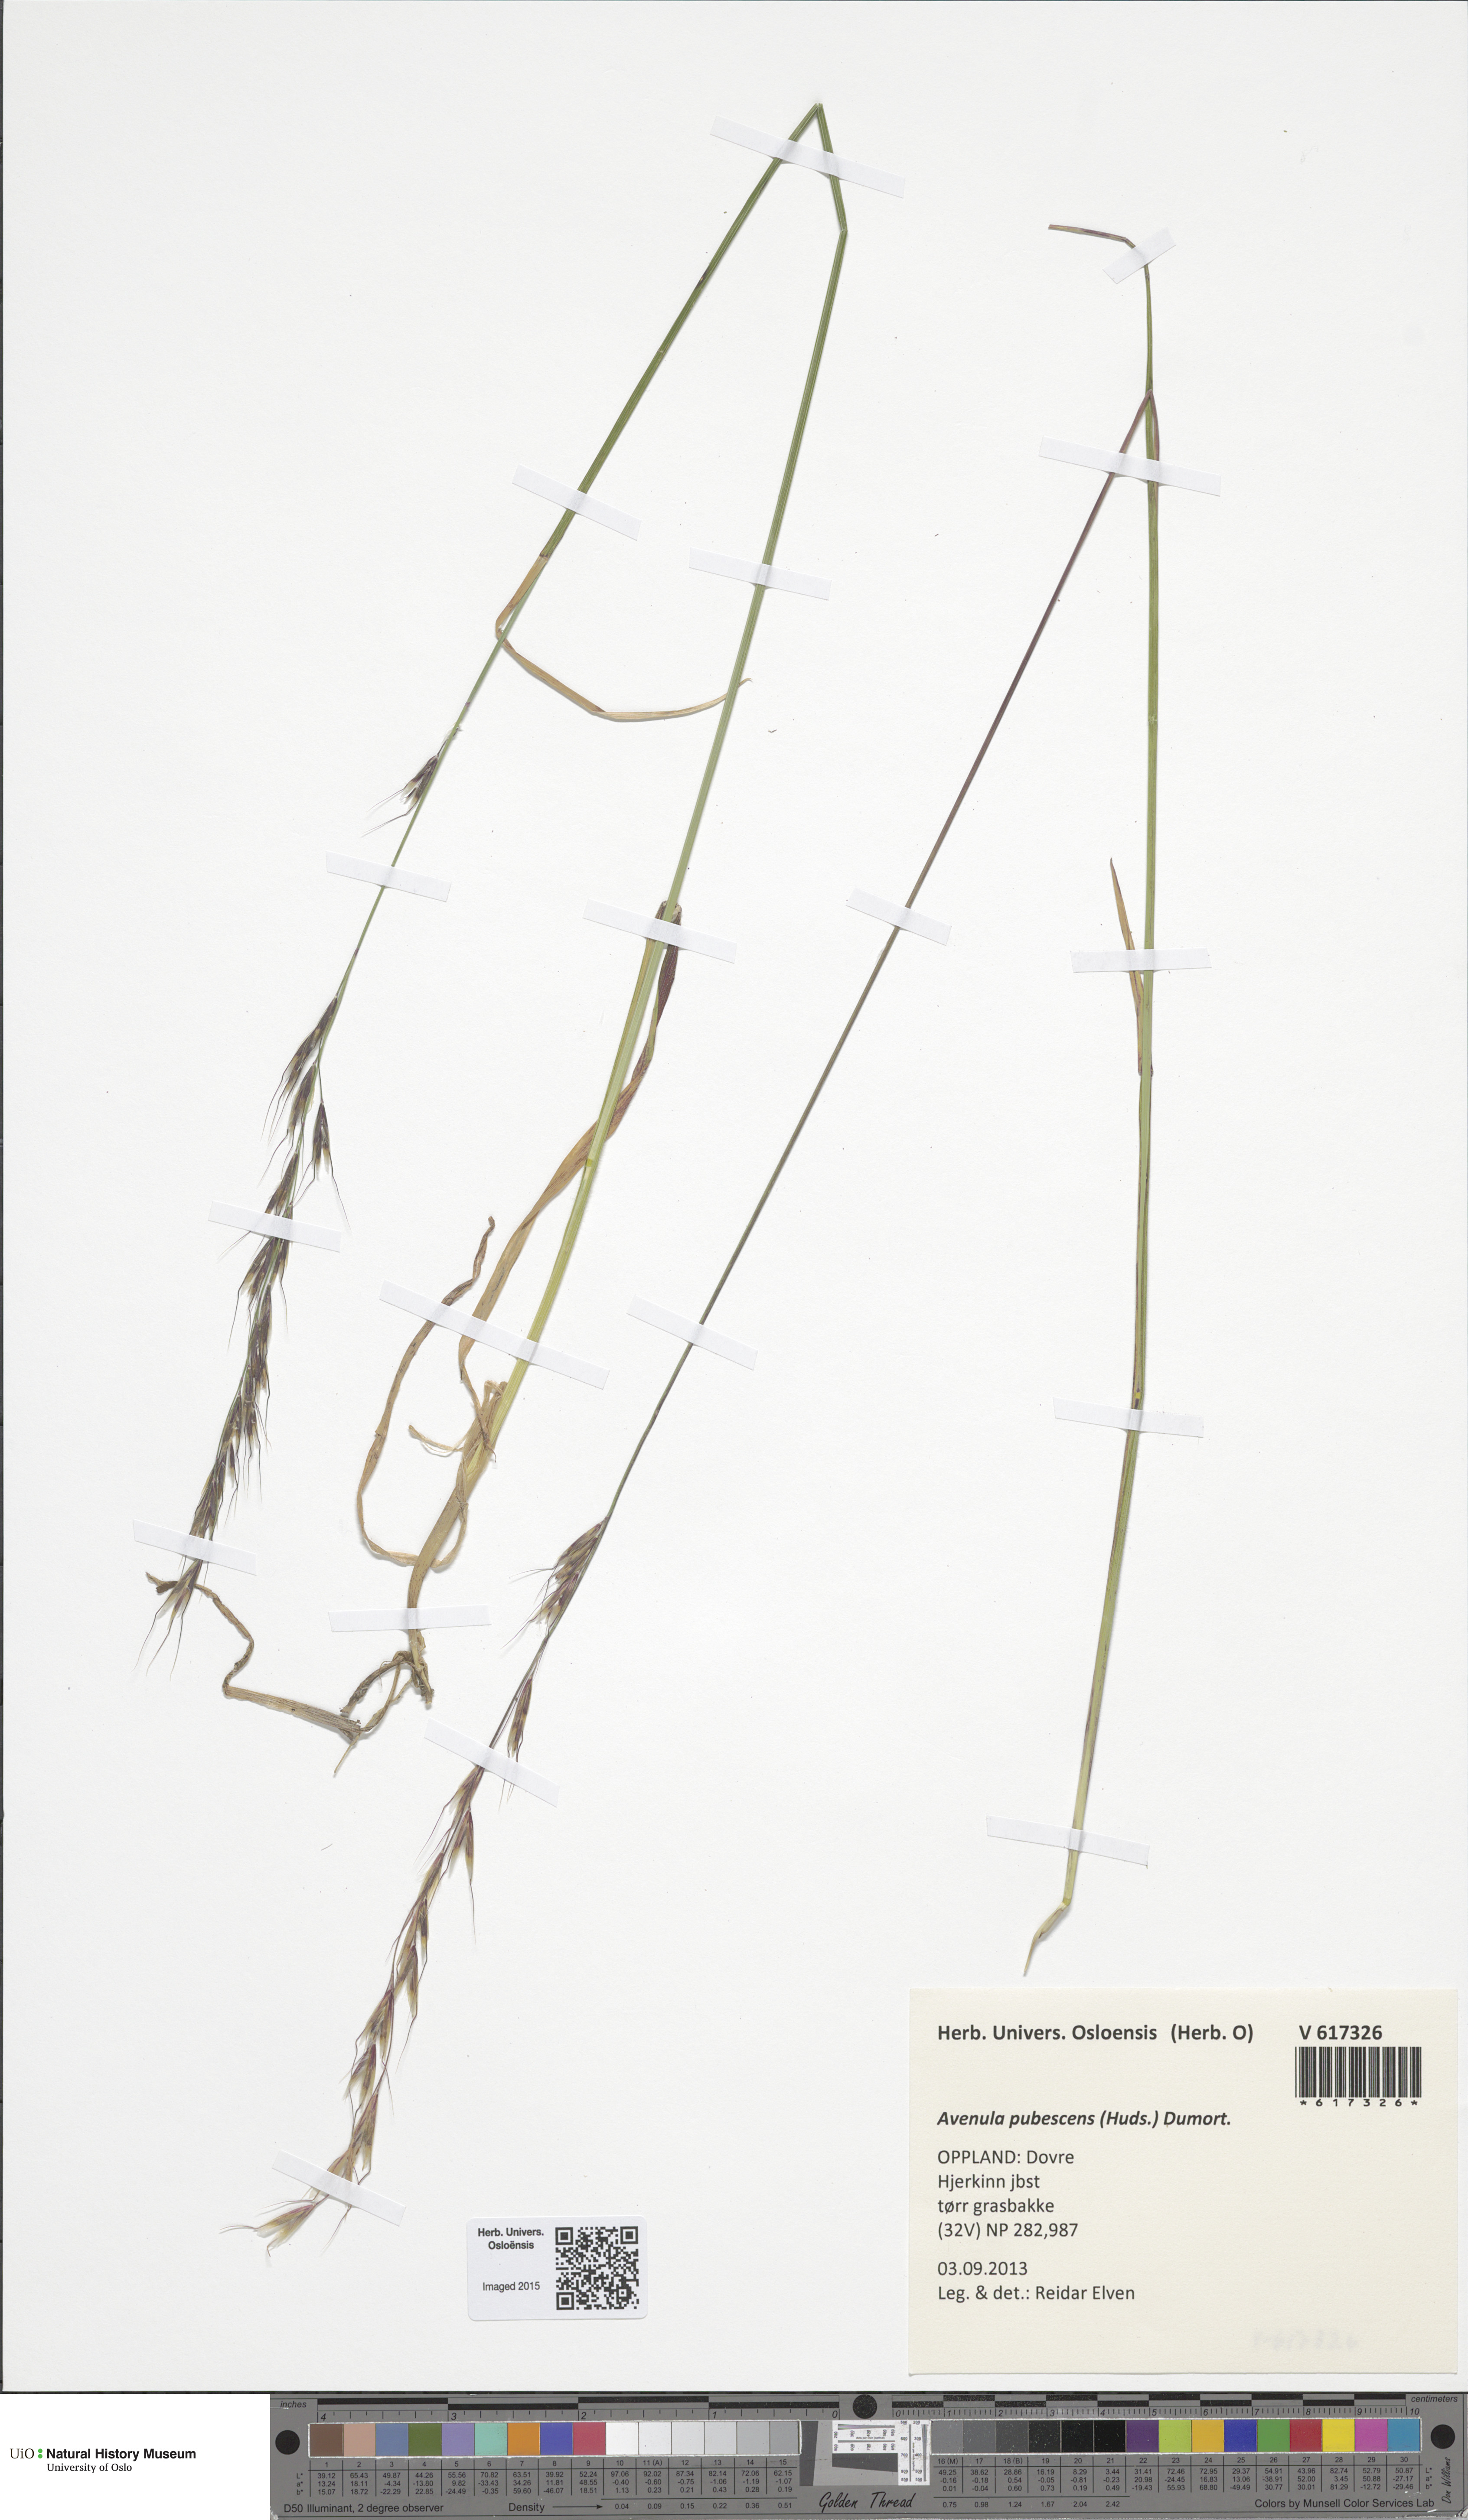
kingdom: Plantae
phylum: Tracheophyta
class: Liliopsida
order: Poales
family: Poaceae
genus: Avenula
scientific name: Avenula pubescens
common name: Downy alpine oatgrass
